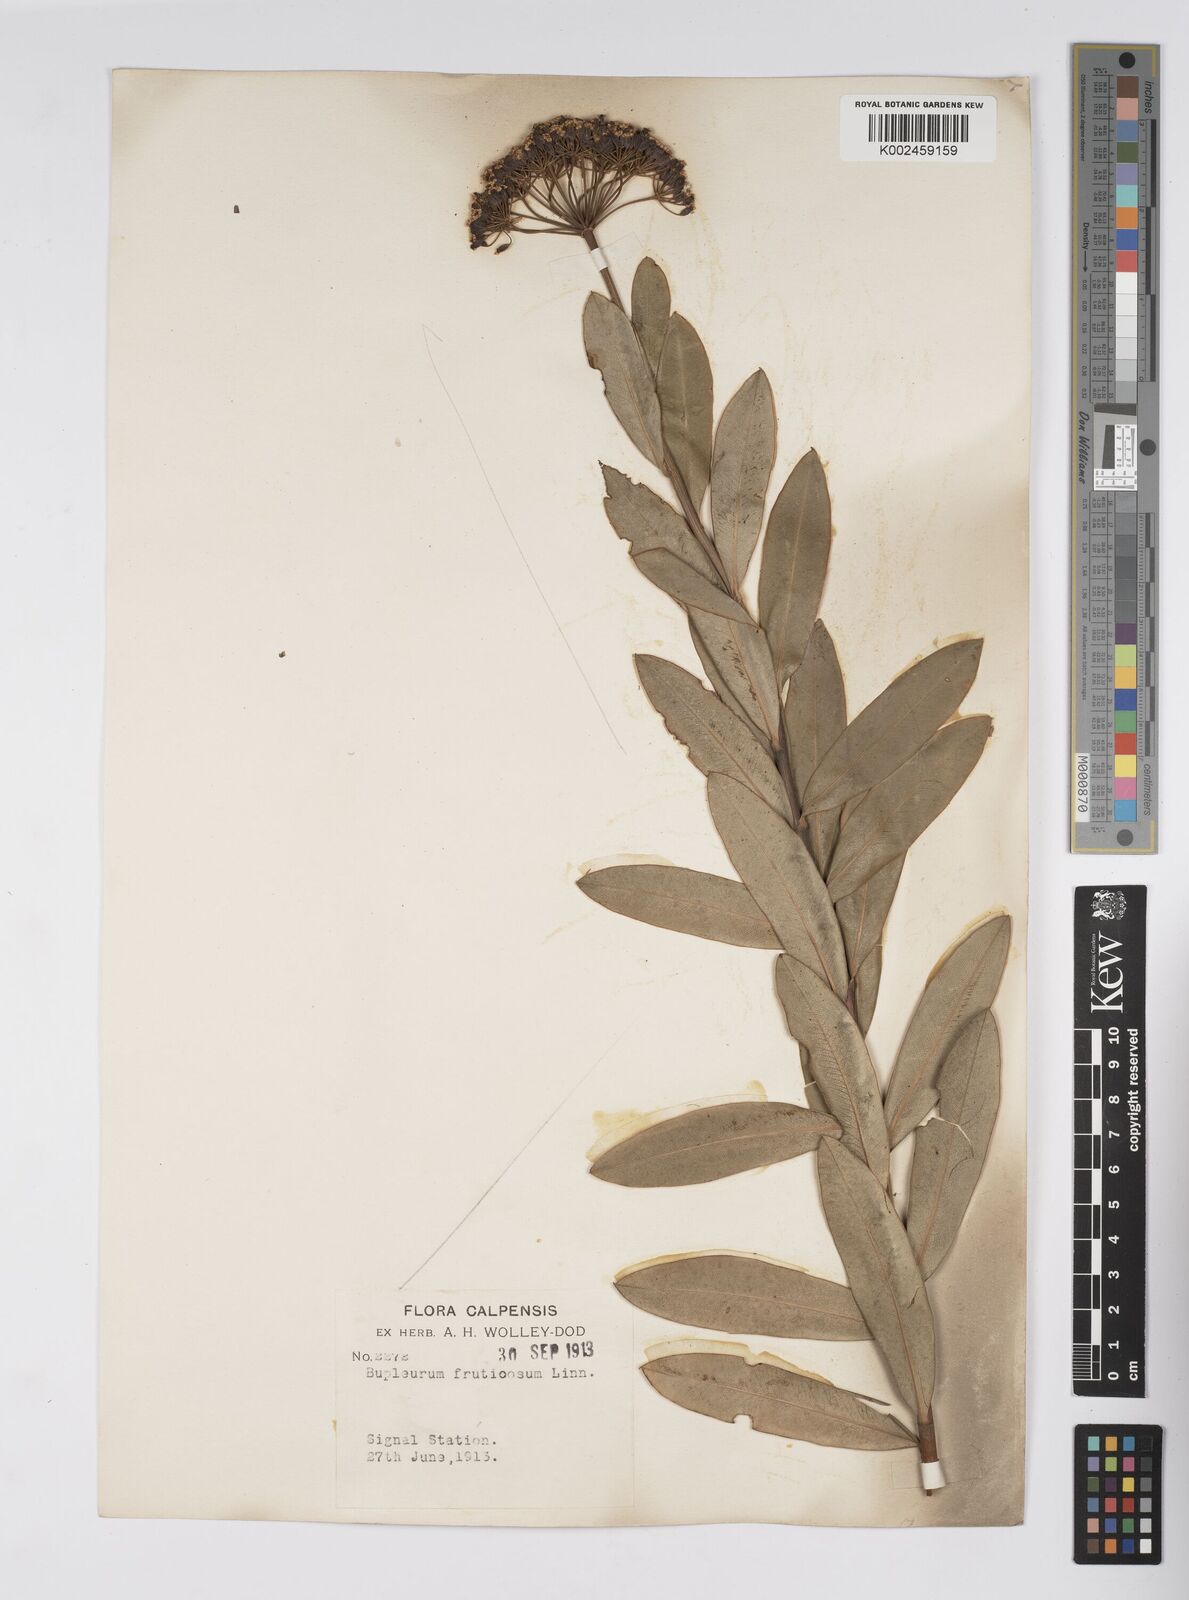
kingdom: Plantae
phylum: Tracheophyta
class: Magnoliopsida
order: Apiales
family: Apiaceae
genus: Bupleurum
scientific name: Bupleurum fruticosum
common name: Shrubby hare's-ear
